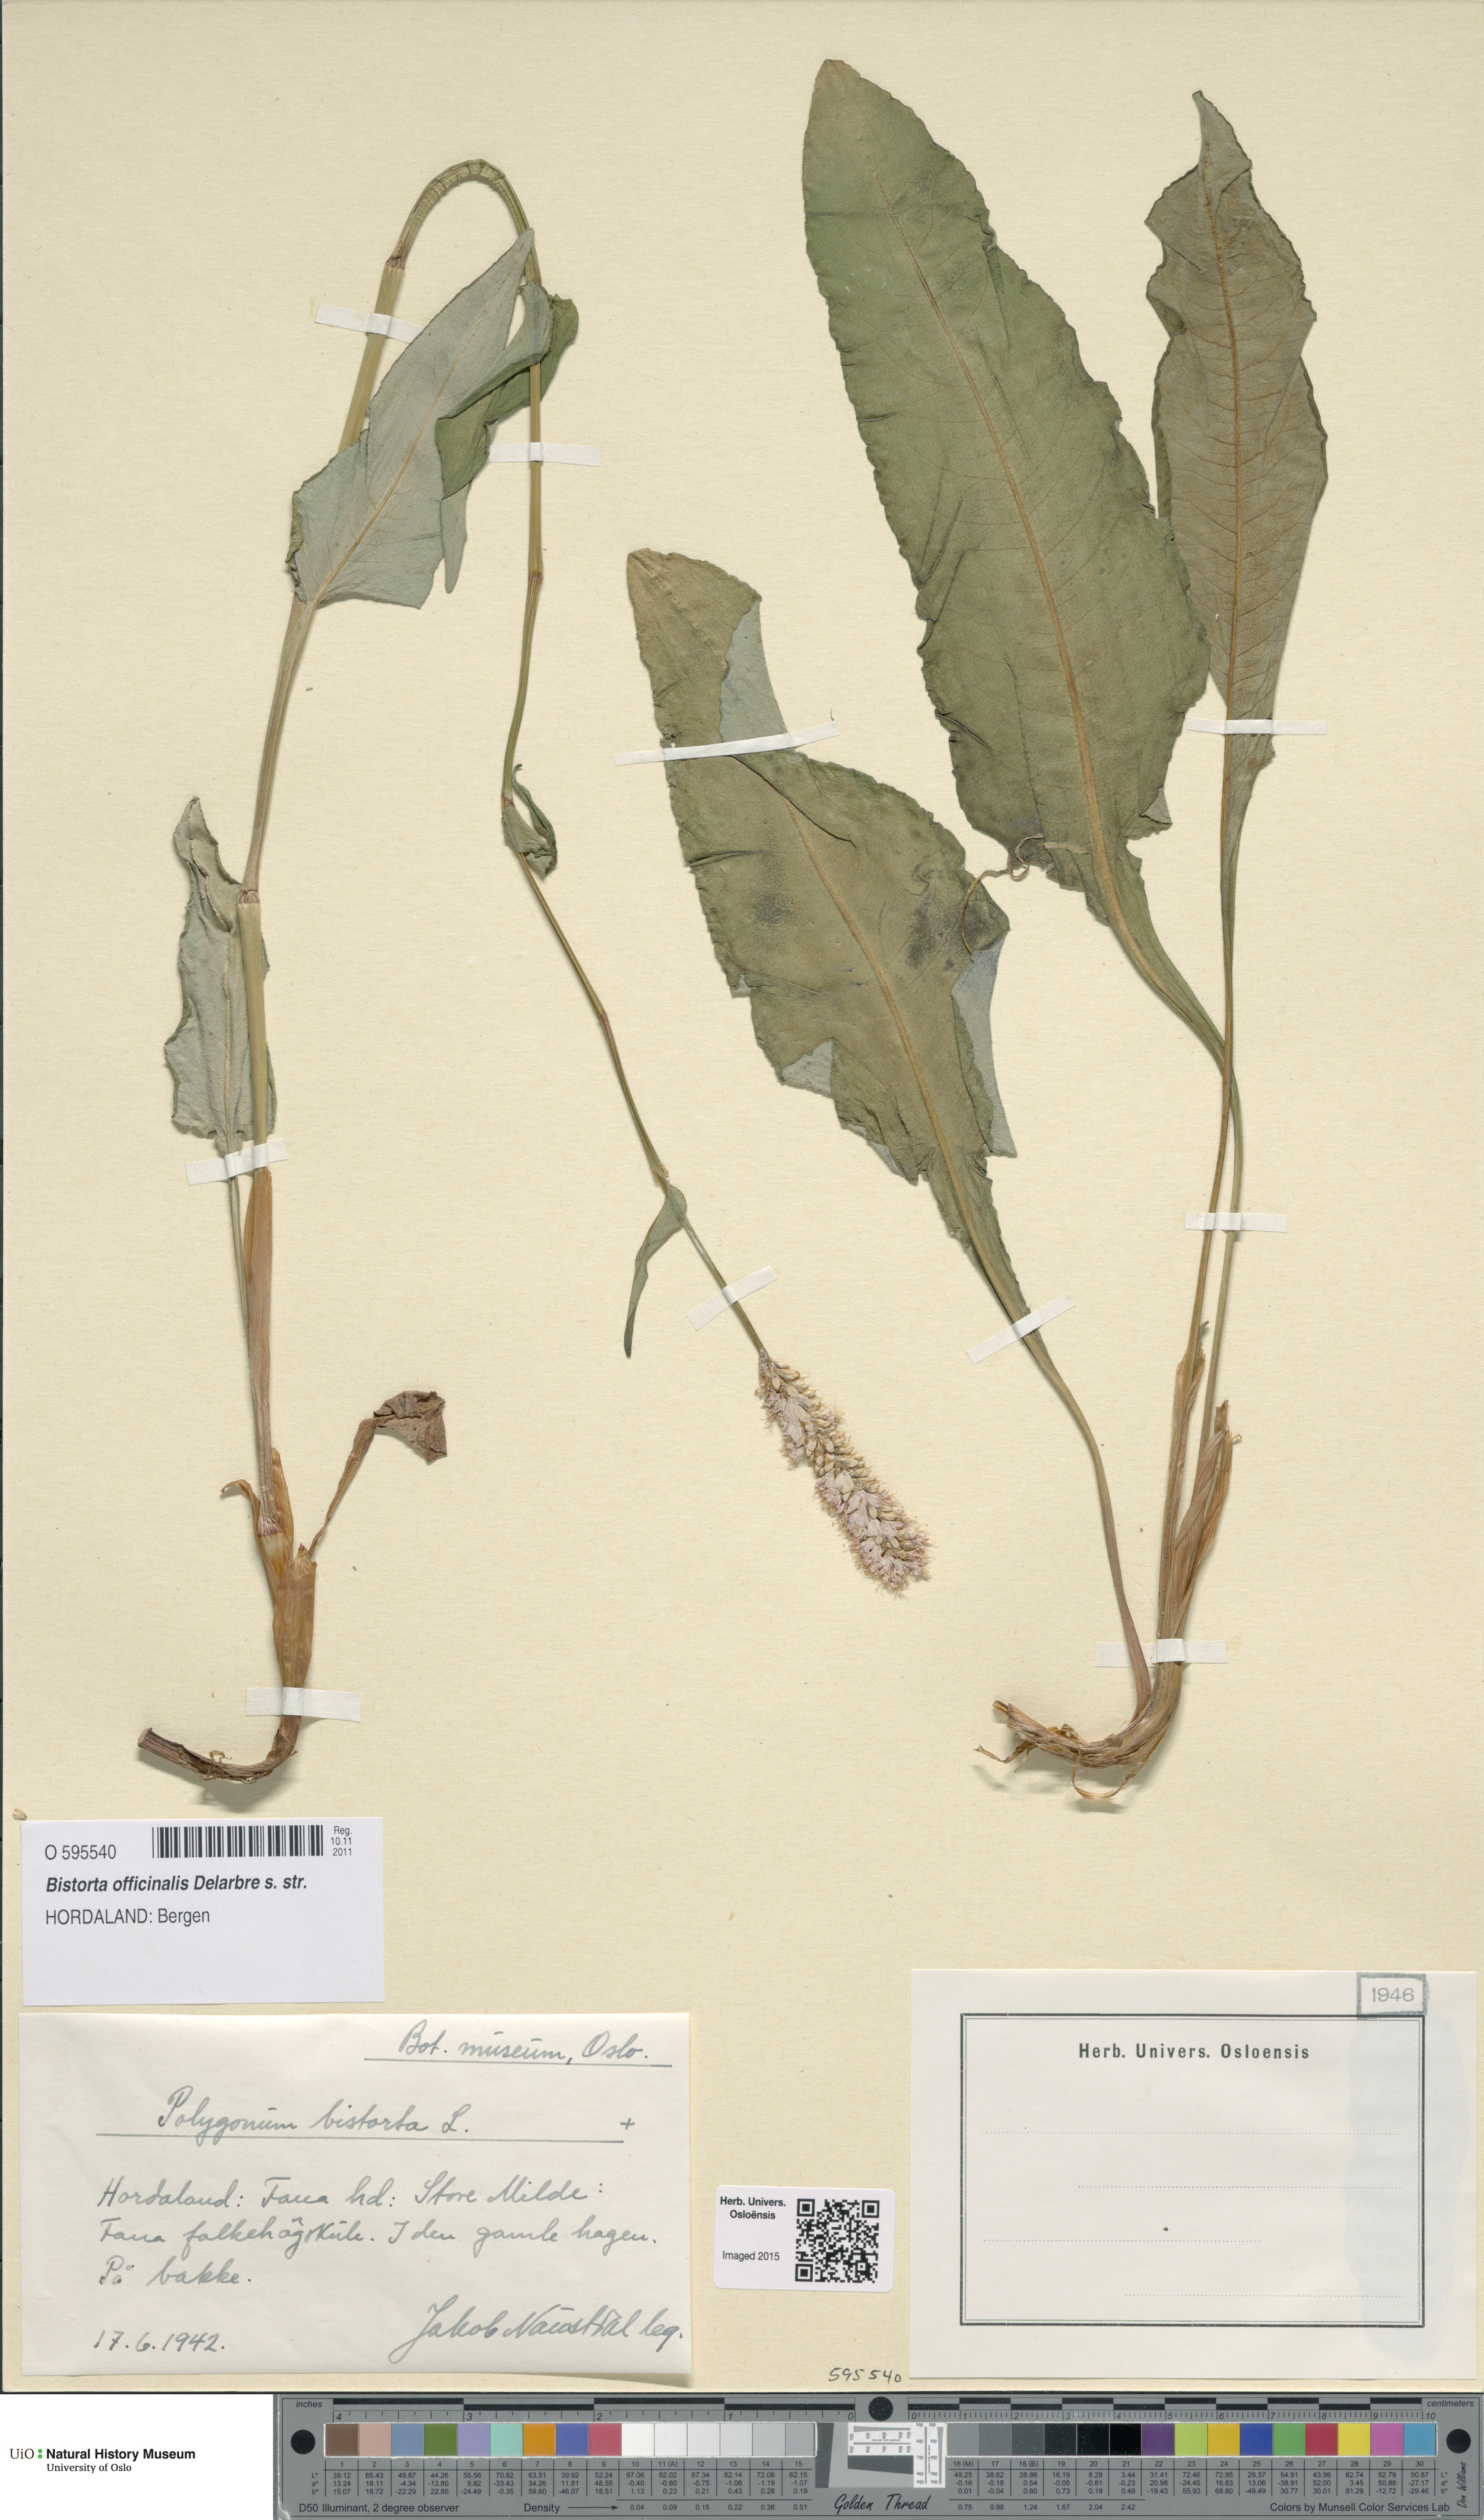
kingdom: Plantae
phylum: Tracheophyta
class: Magnoliopsida
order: Caryophyllales
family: Polygonaceae
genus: Bistorta
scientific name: Bistorta officinalis
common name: Common bistort
